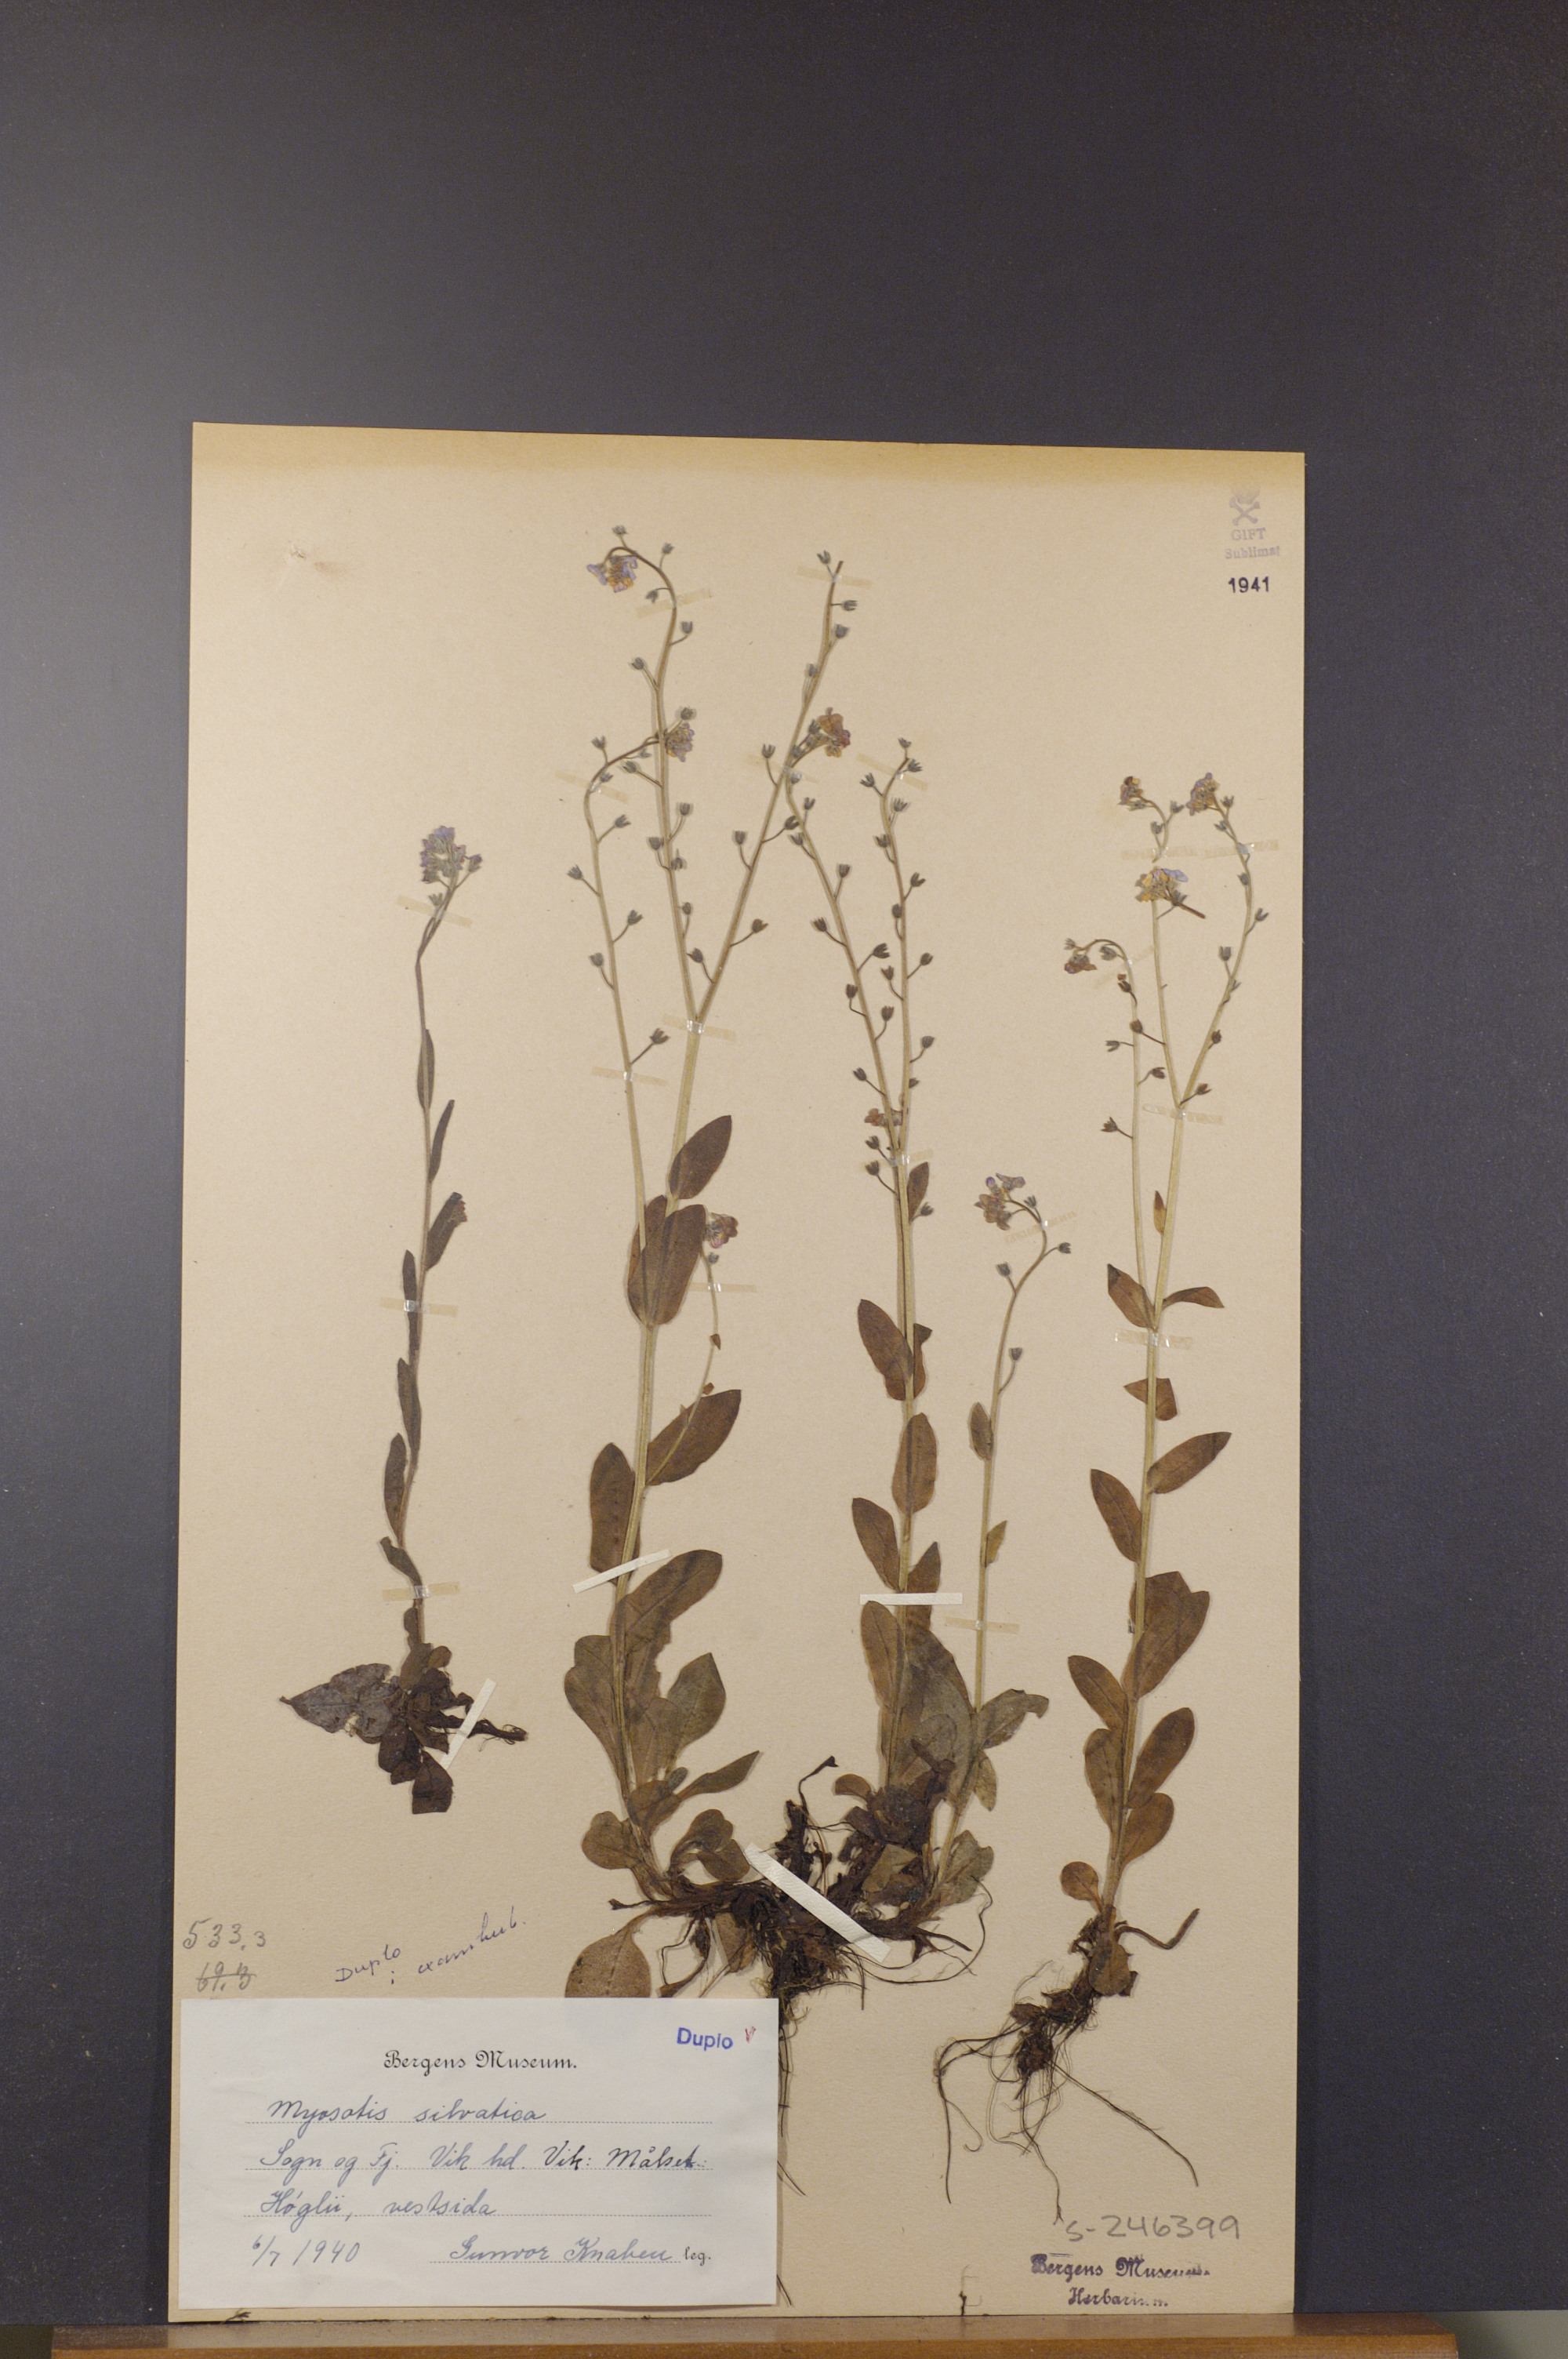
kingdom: Plantae
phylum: Tracheophyta
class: Magnoliopsida
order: Boraginales
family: Boraginaceae
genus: Myosotis
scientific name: Myosotis decumbens
